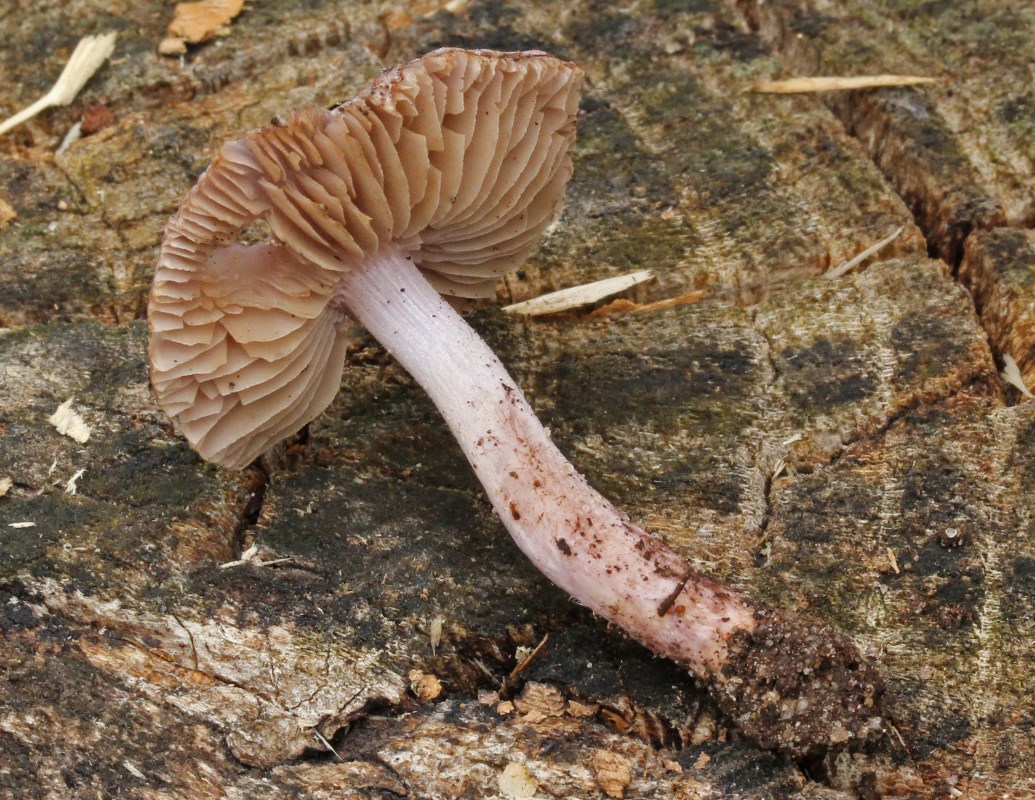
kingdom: Fungi
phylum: Basidiomycota
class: Agaricomycetes
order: Agaricales
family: Inocybaceae
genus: Inocybe
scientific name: Inocybe geophylla
